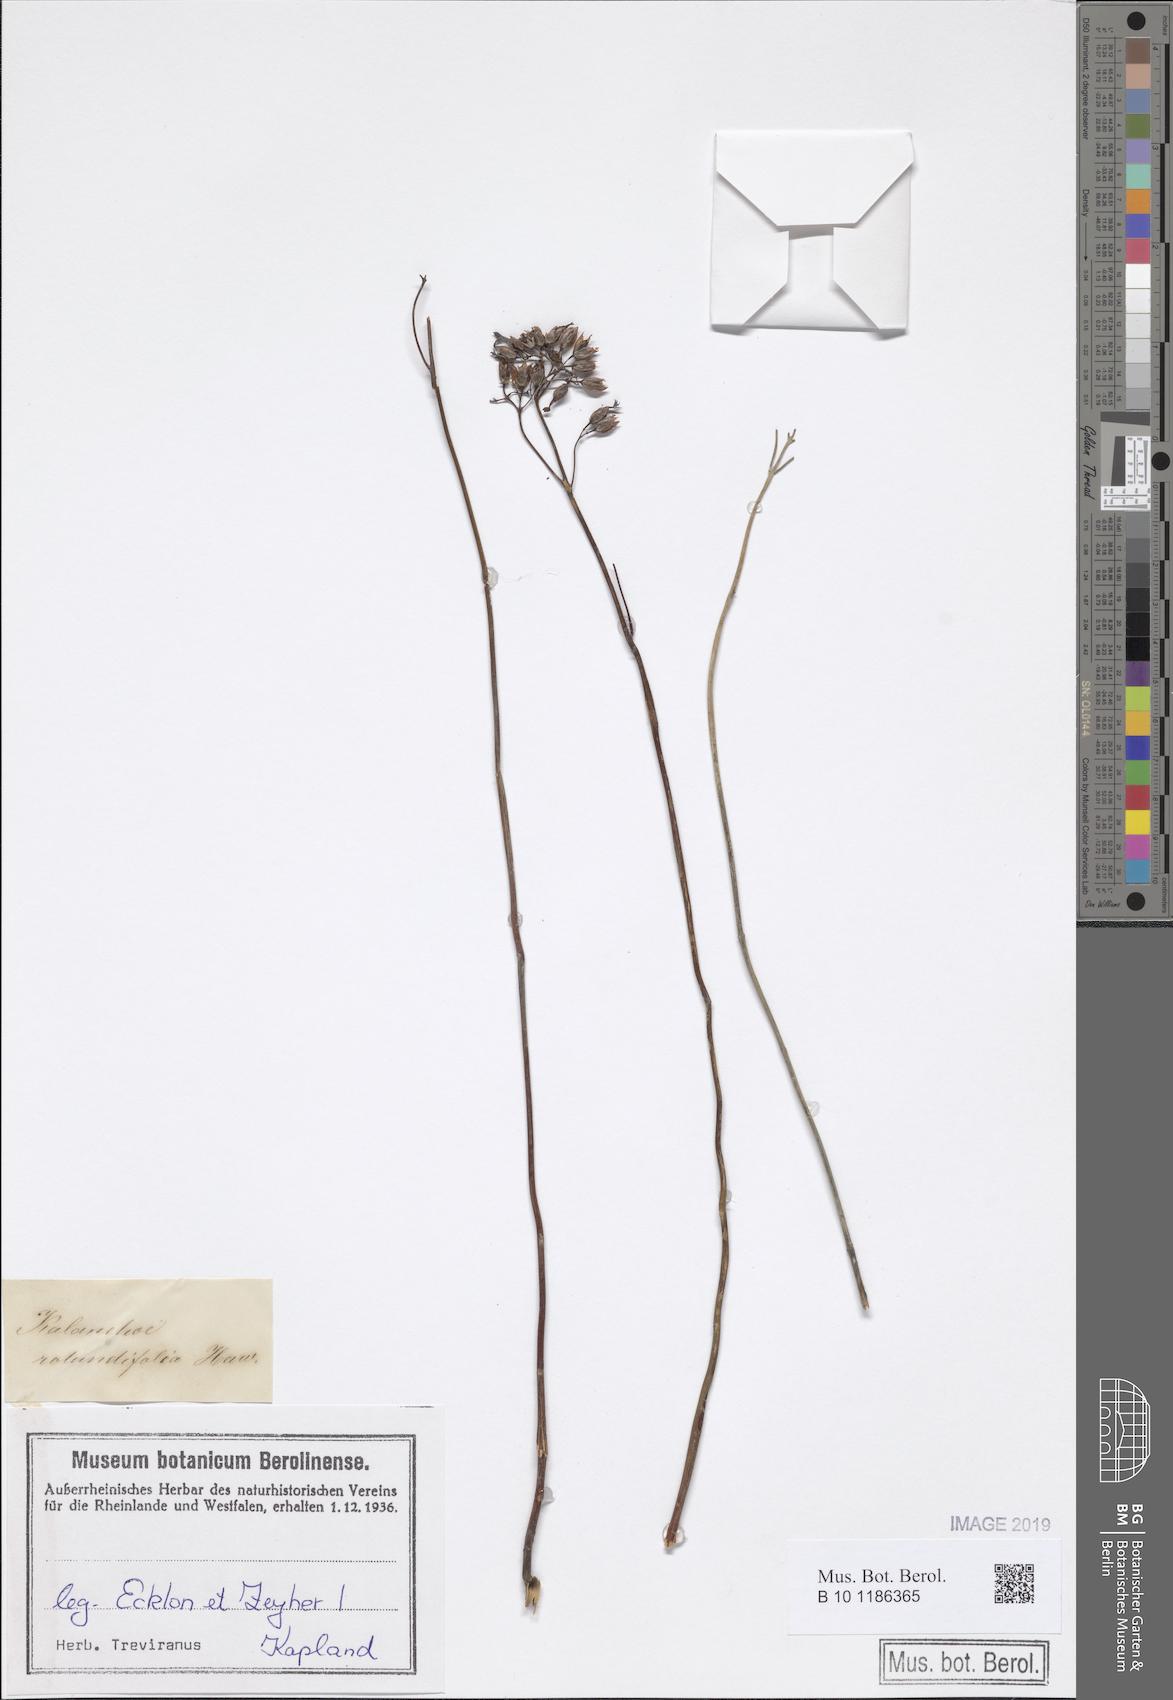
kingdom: Plantae
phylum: Tracheophyta
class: Magnoliopsida
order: Saxifragales
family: Crassulaceae
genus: Kalanchoe
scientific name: Kalanchoe rotundifolia
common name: Common kalanchoe
